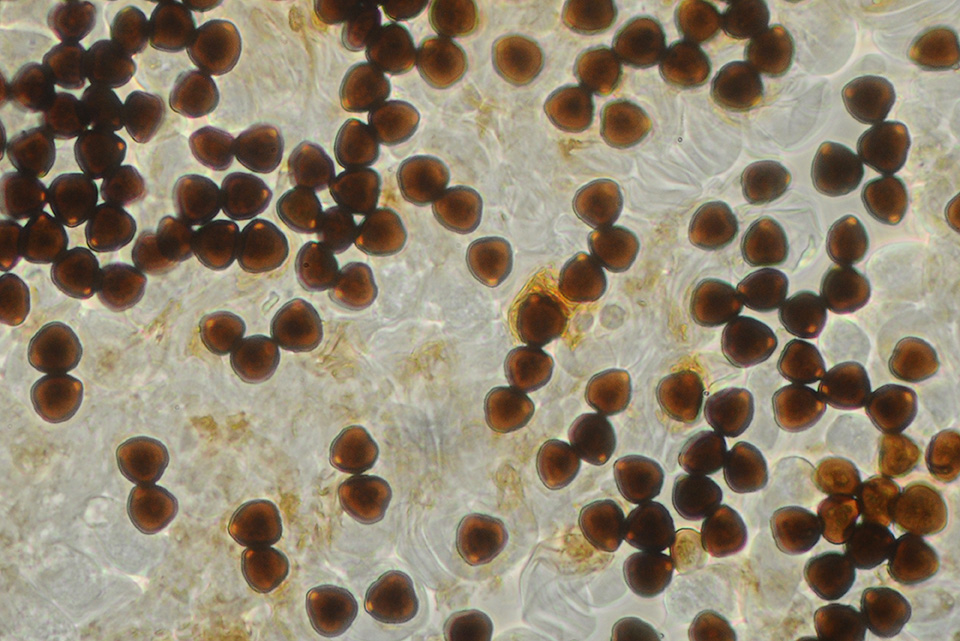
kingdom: Fungi
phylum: Basidiomycota
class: Agaricomycetes
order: Agaricales
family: Psathyrellaceae
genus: Parasola
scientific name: Parasola misera
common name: lillebitte hjulhat
